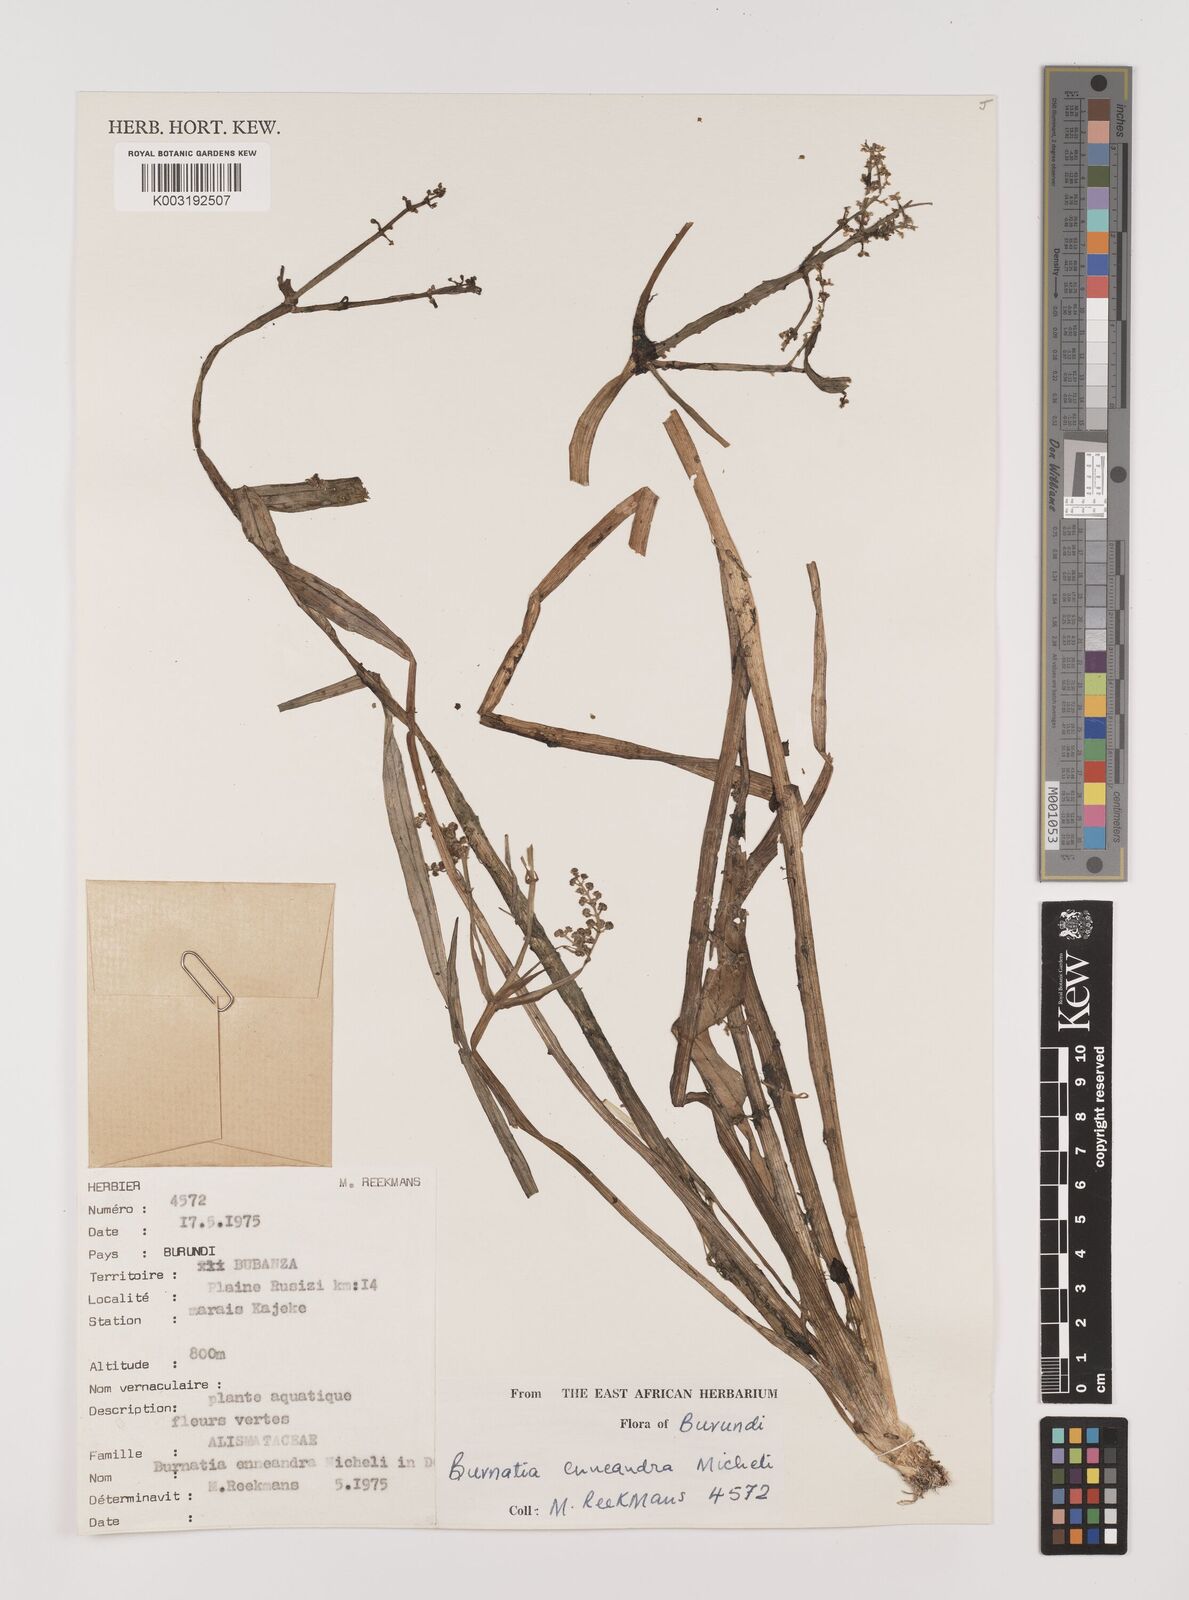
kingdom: Plantae
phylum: Tracheophyta
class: Liliopsida
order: Alismatales
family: Alismataceae
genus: Burnatia
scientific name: Burnatia enneandra
